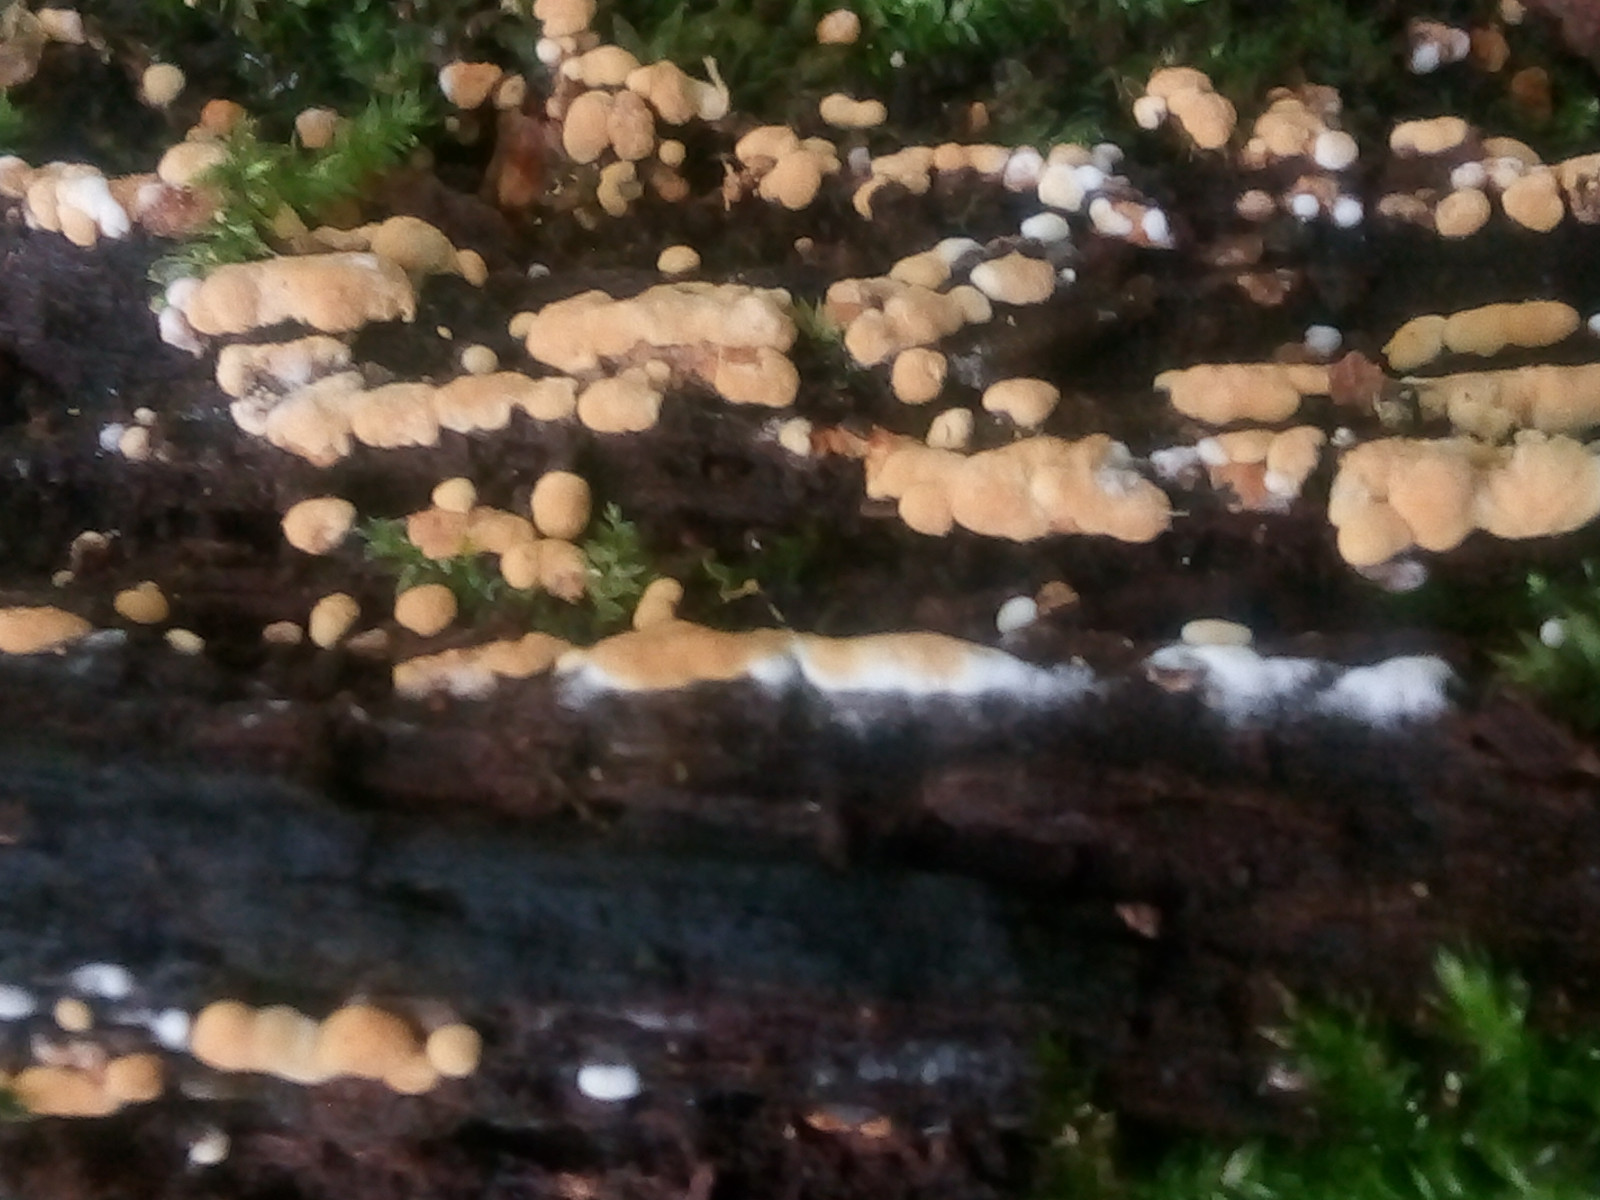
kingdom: Fungi
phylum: Basidiomycota
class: Agaricomycetes
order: Cantharellales
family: Botryobasidiaceae
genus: Botryobasidium
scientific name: Botryobasidium aureum
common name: gylden spindhinde
